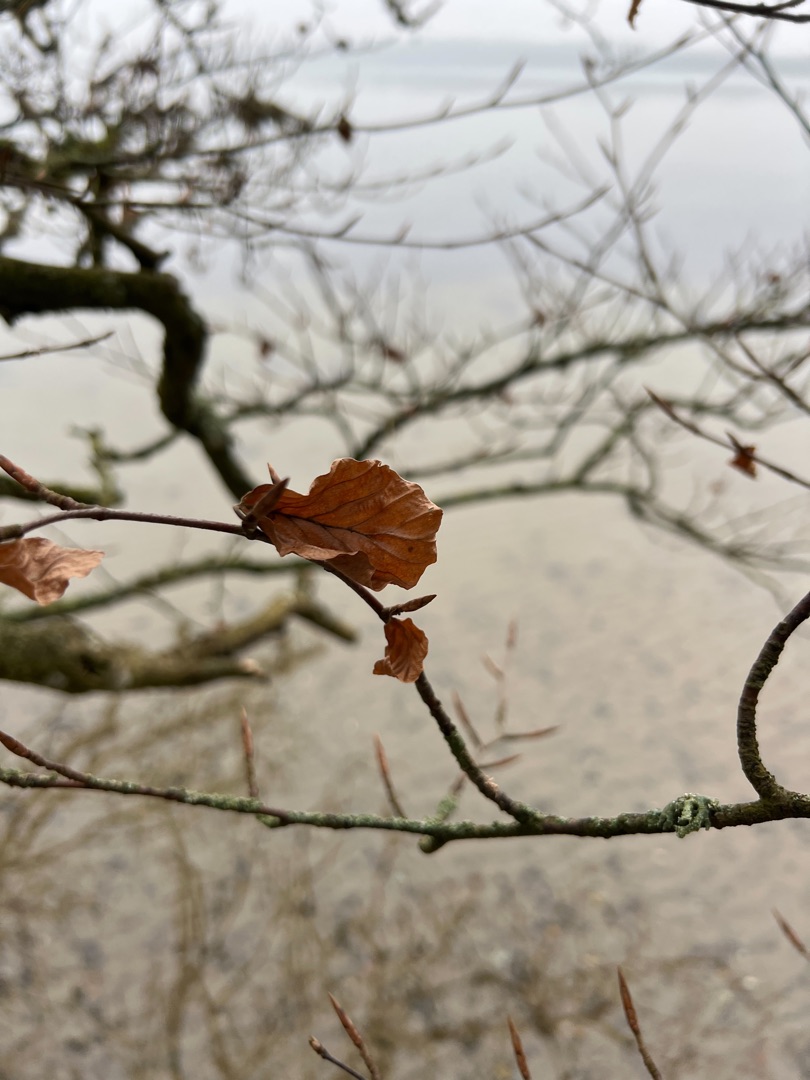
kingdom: Plantae
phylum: Tracheophyta
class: Magnoliopsida
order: Fagales
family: Fagaceae
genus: Fagus
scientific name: Fagus sylvatica
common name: Bøg
